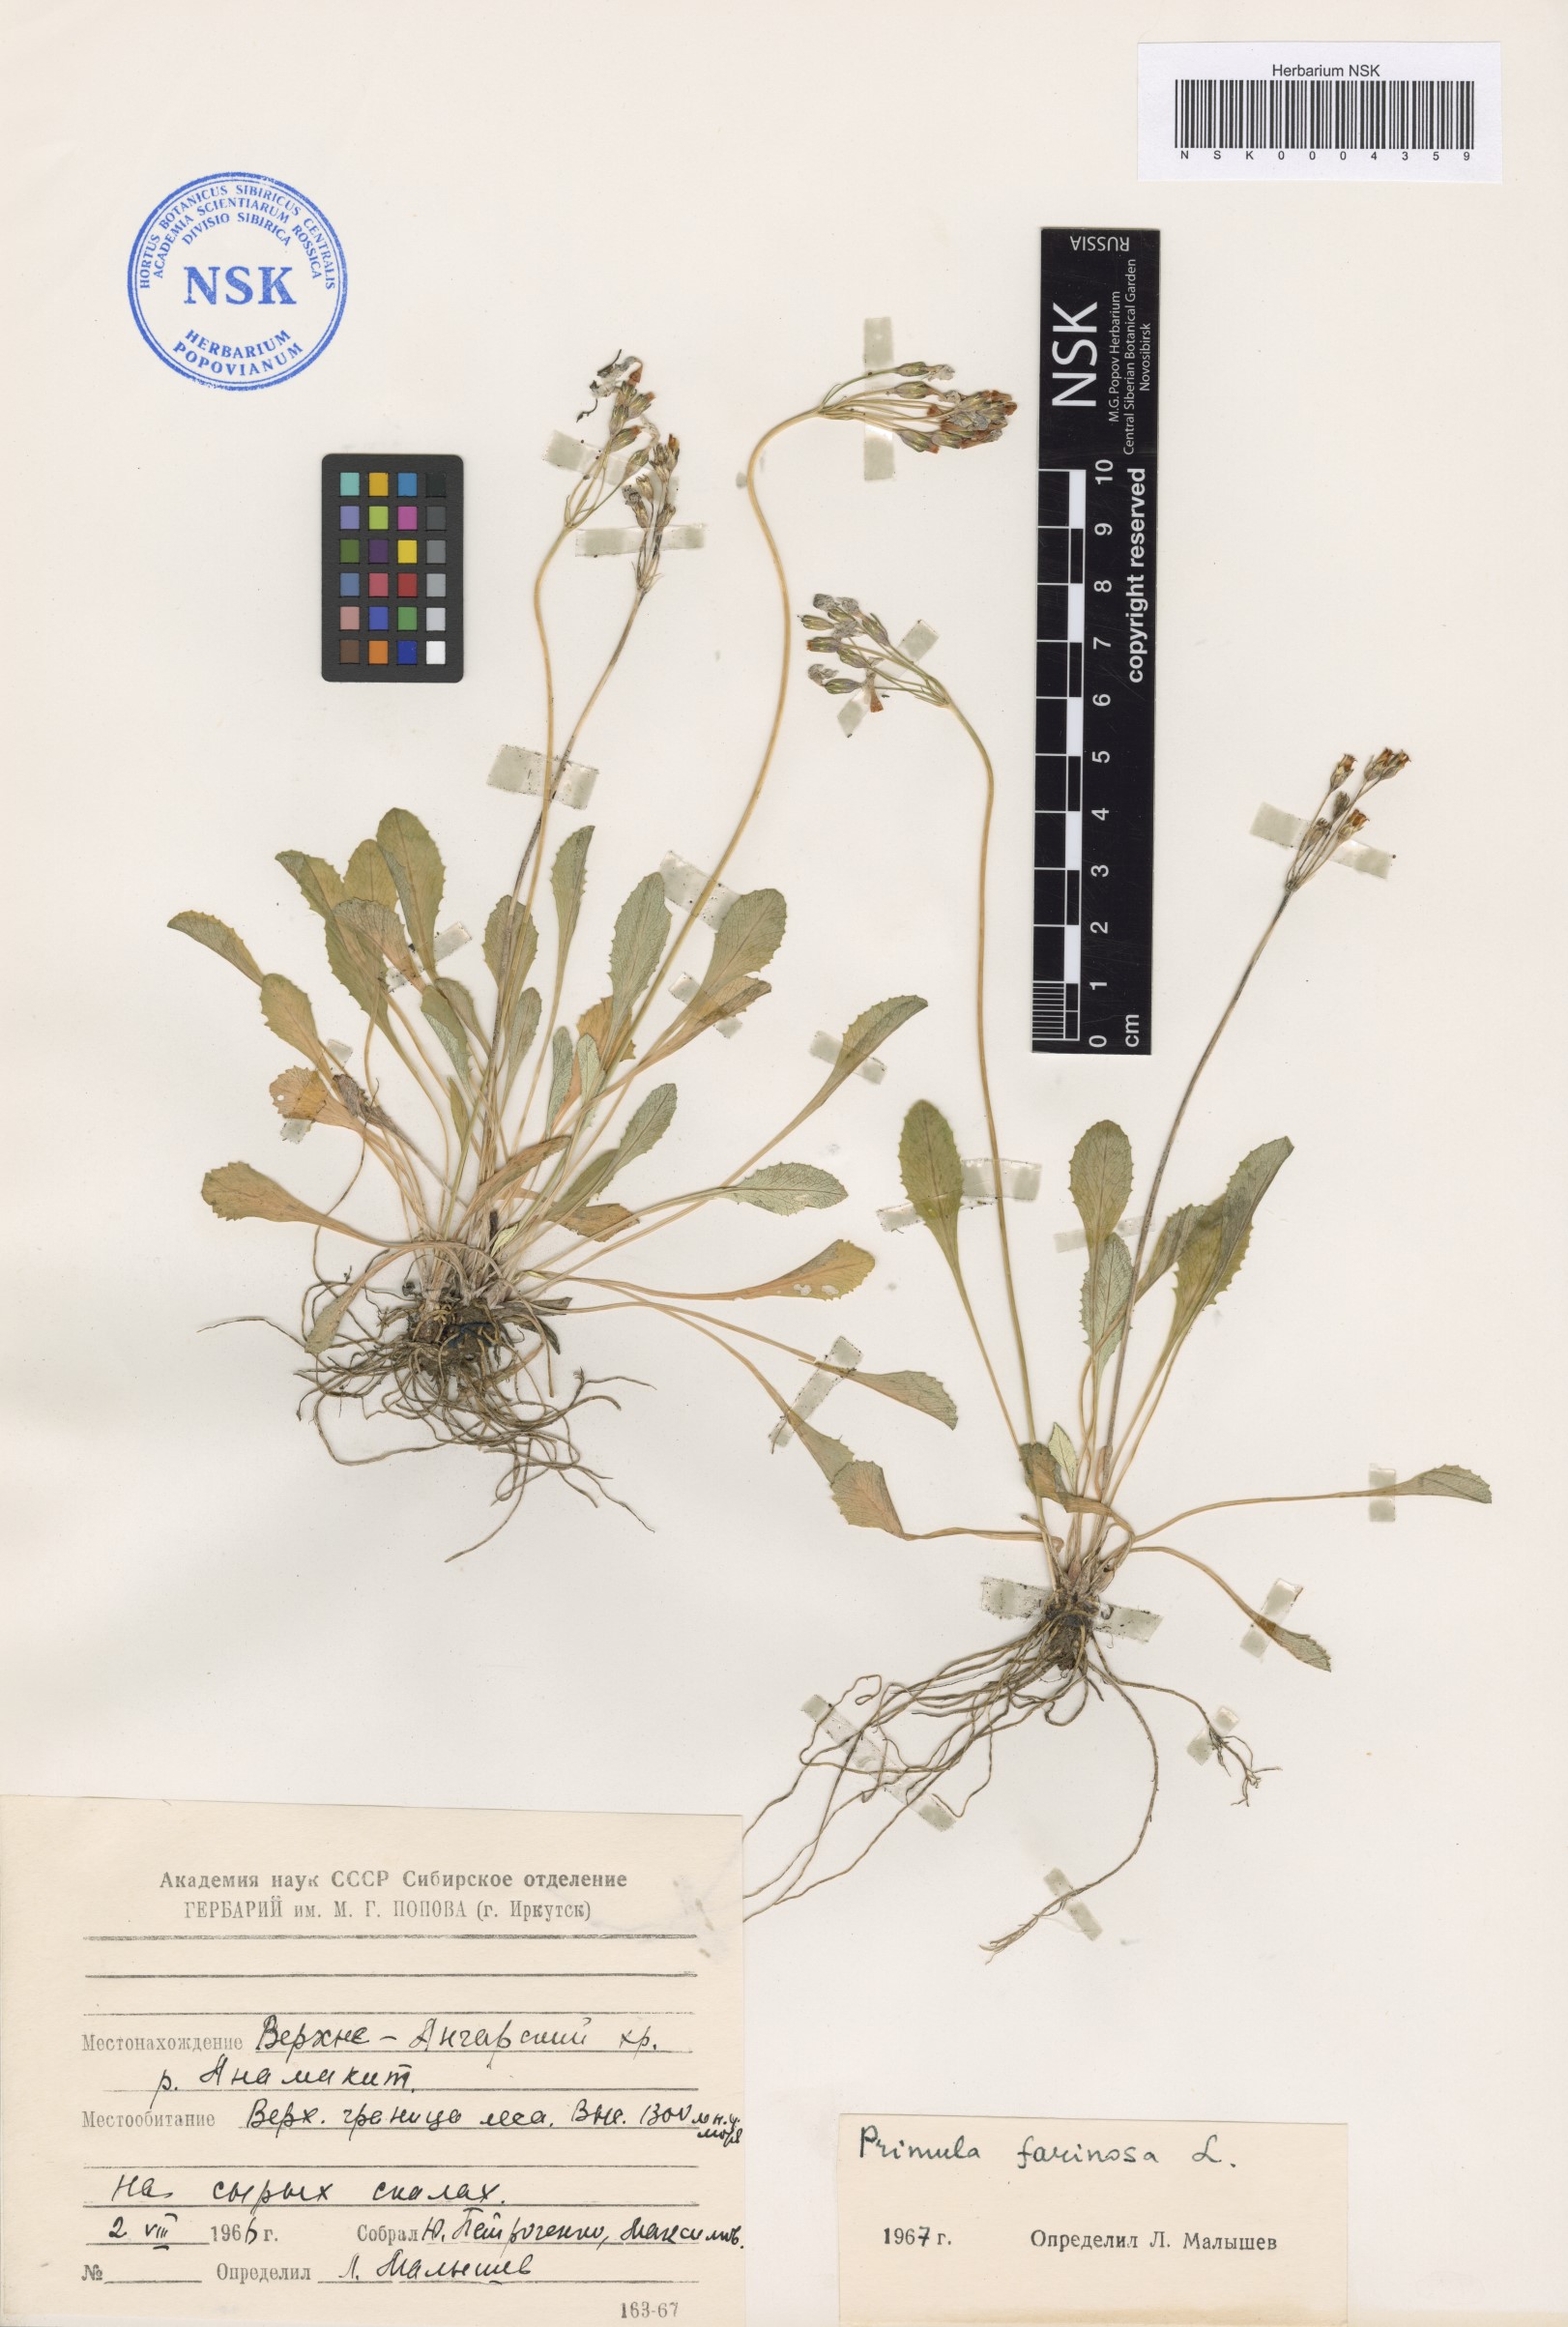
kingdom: Plantae
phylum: Tracheophyta
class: Magnoliopsida
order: Ericales
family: Primulaceae
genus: Primula
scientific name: Primula farinosa
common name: Bird's-eye primrose
